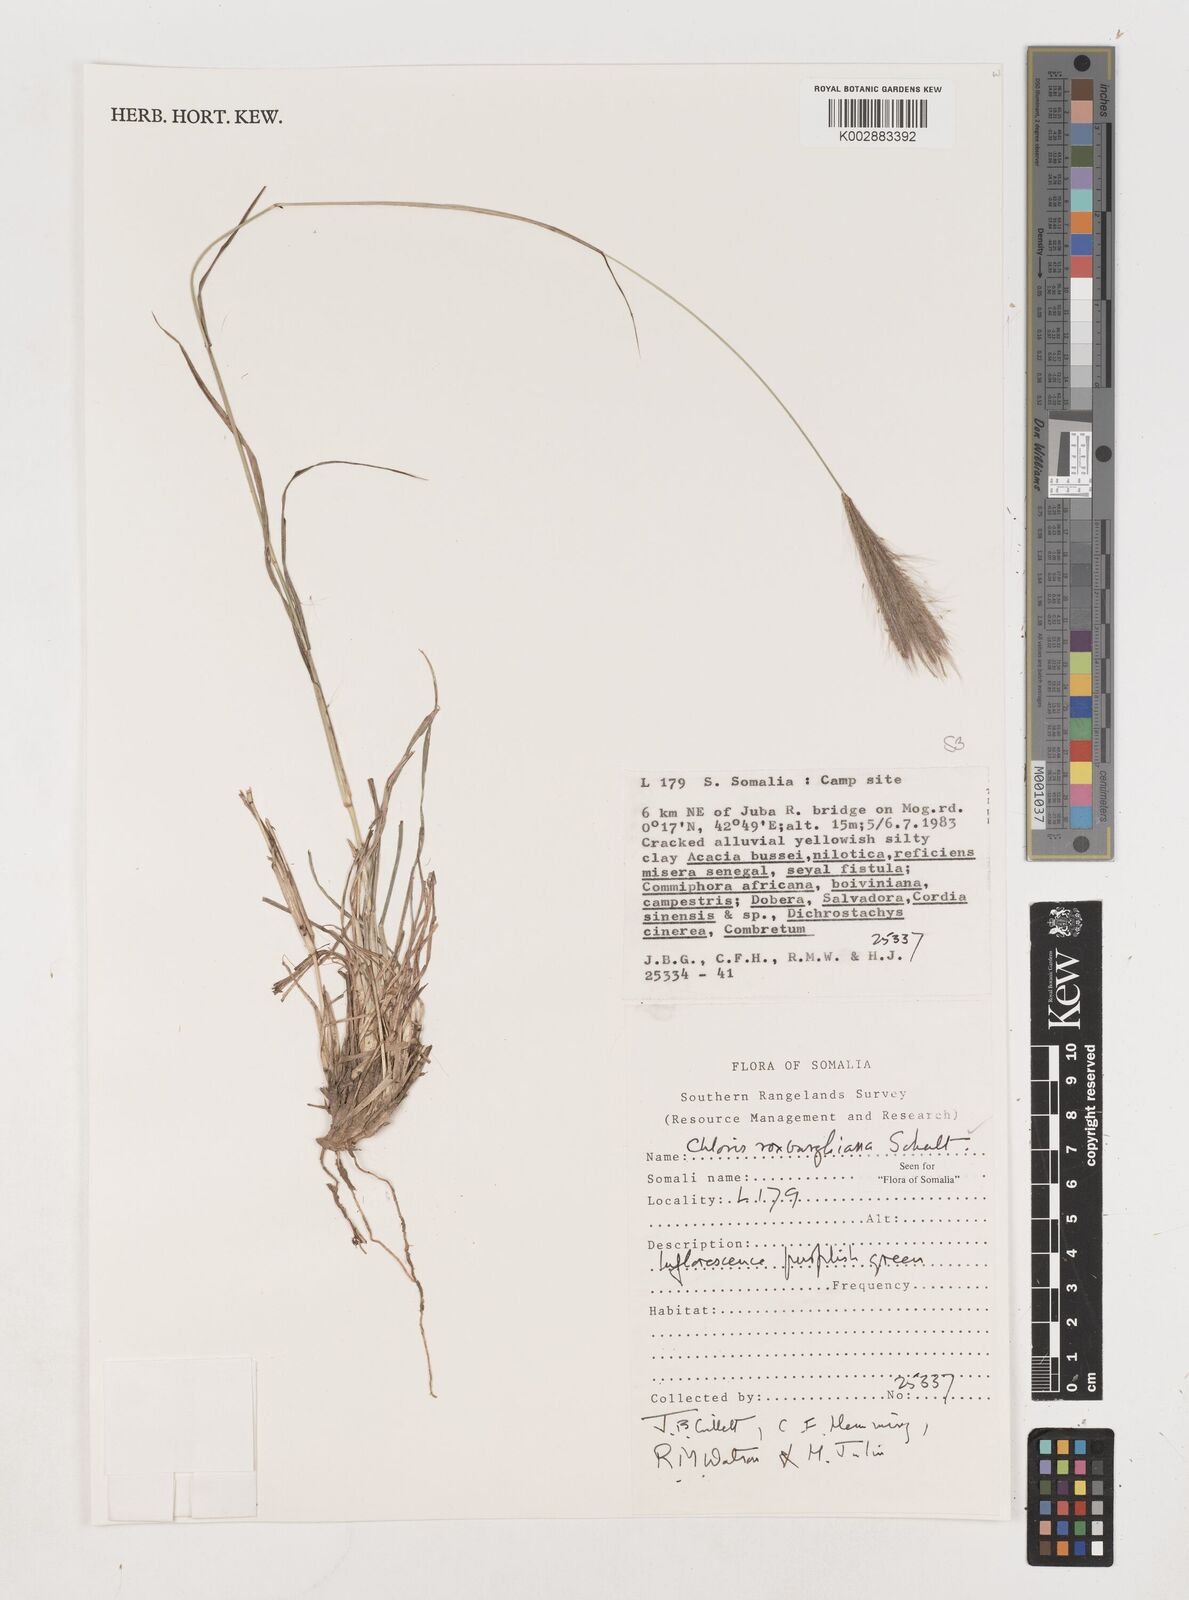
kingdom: Plantae
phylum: Tracheophyta
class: Liliopsida
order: Poales
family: Poaceae
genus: Tetrapogon
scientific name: Tetrapogon roxburghiana
